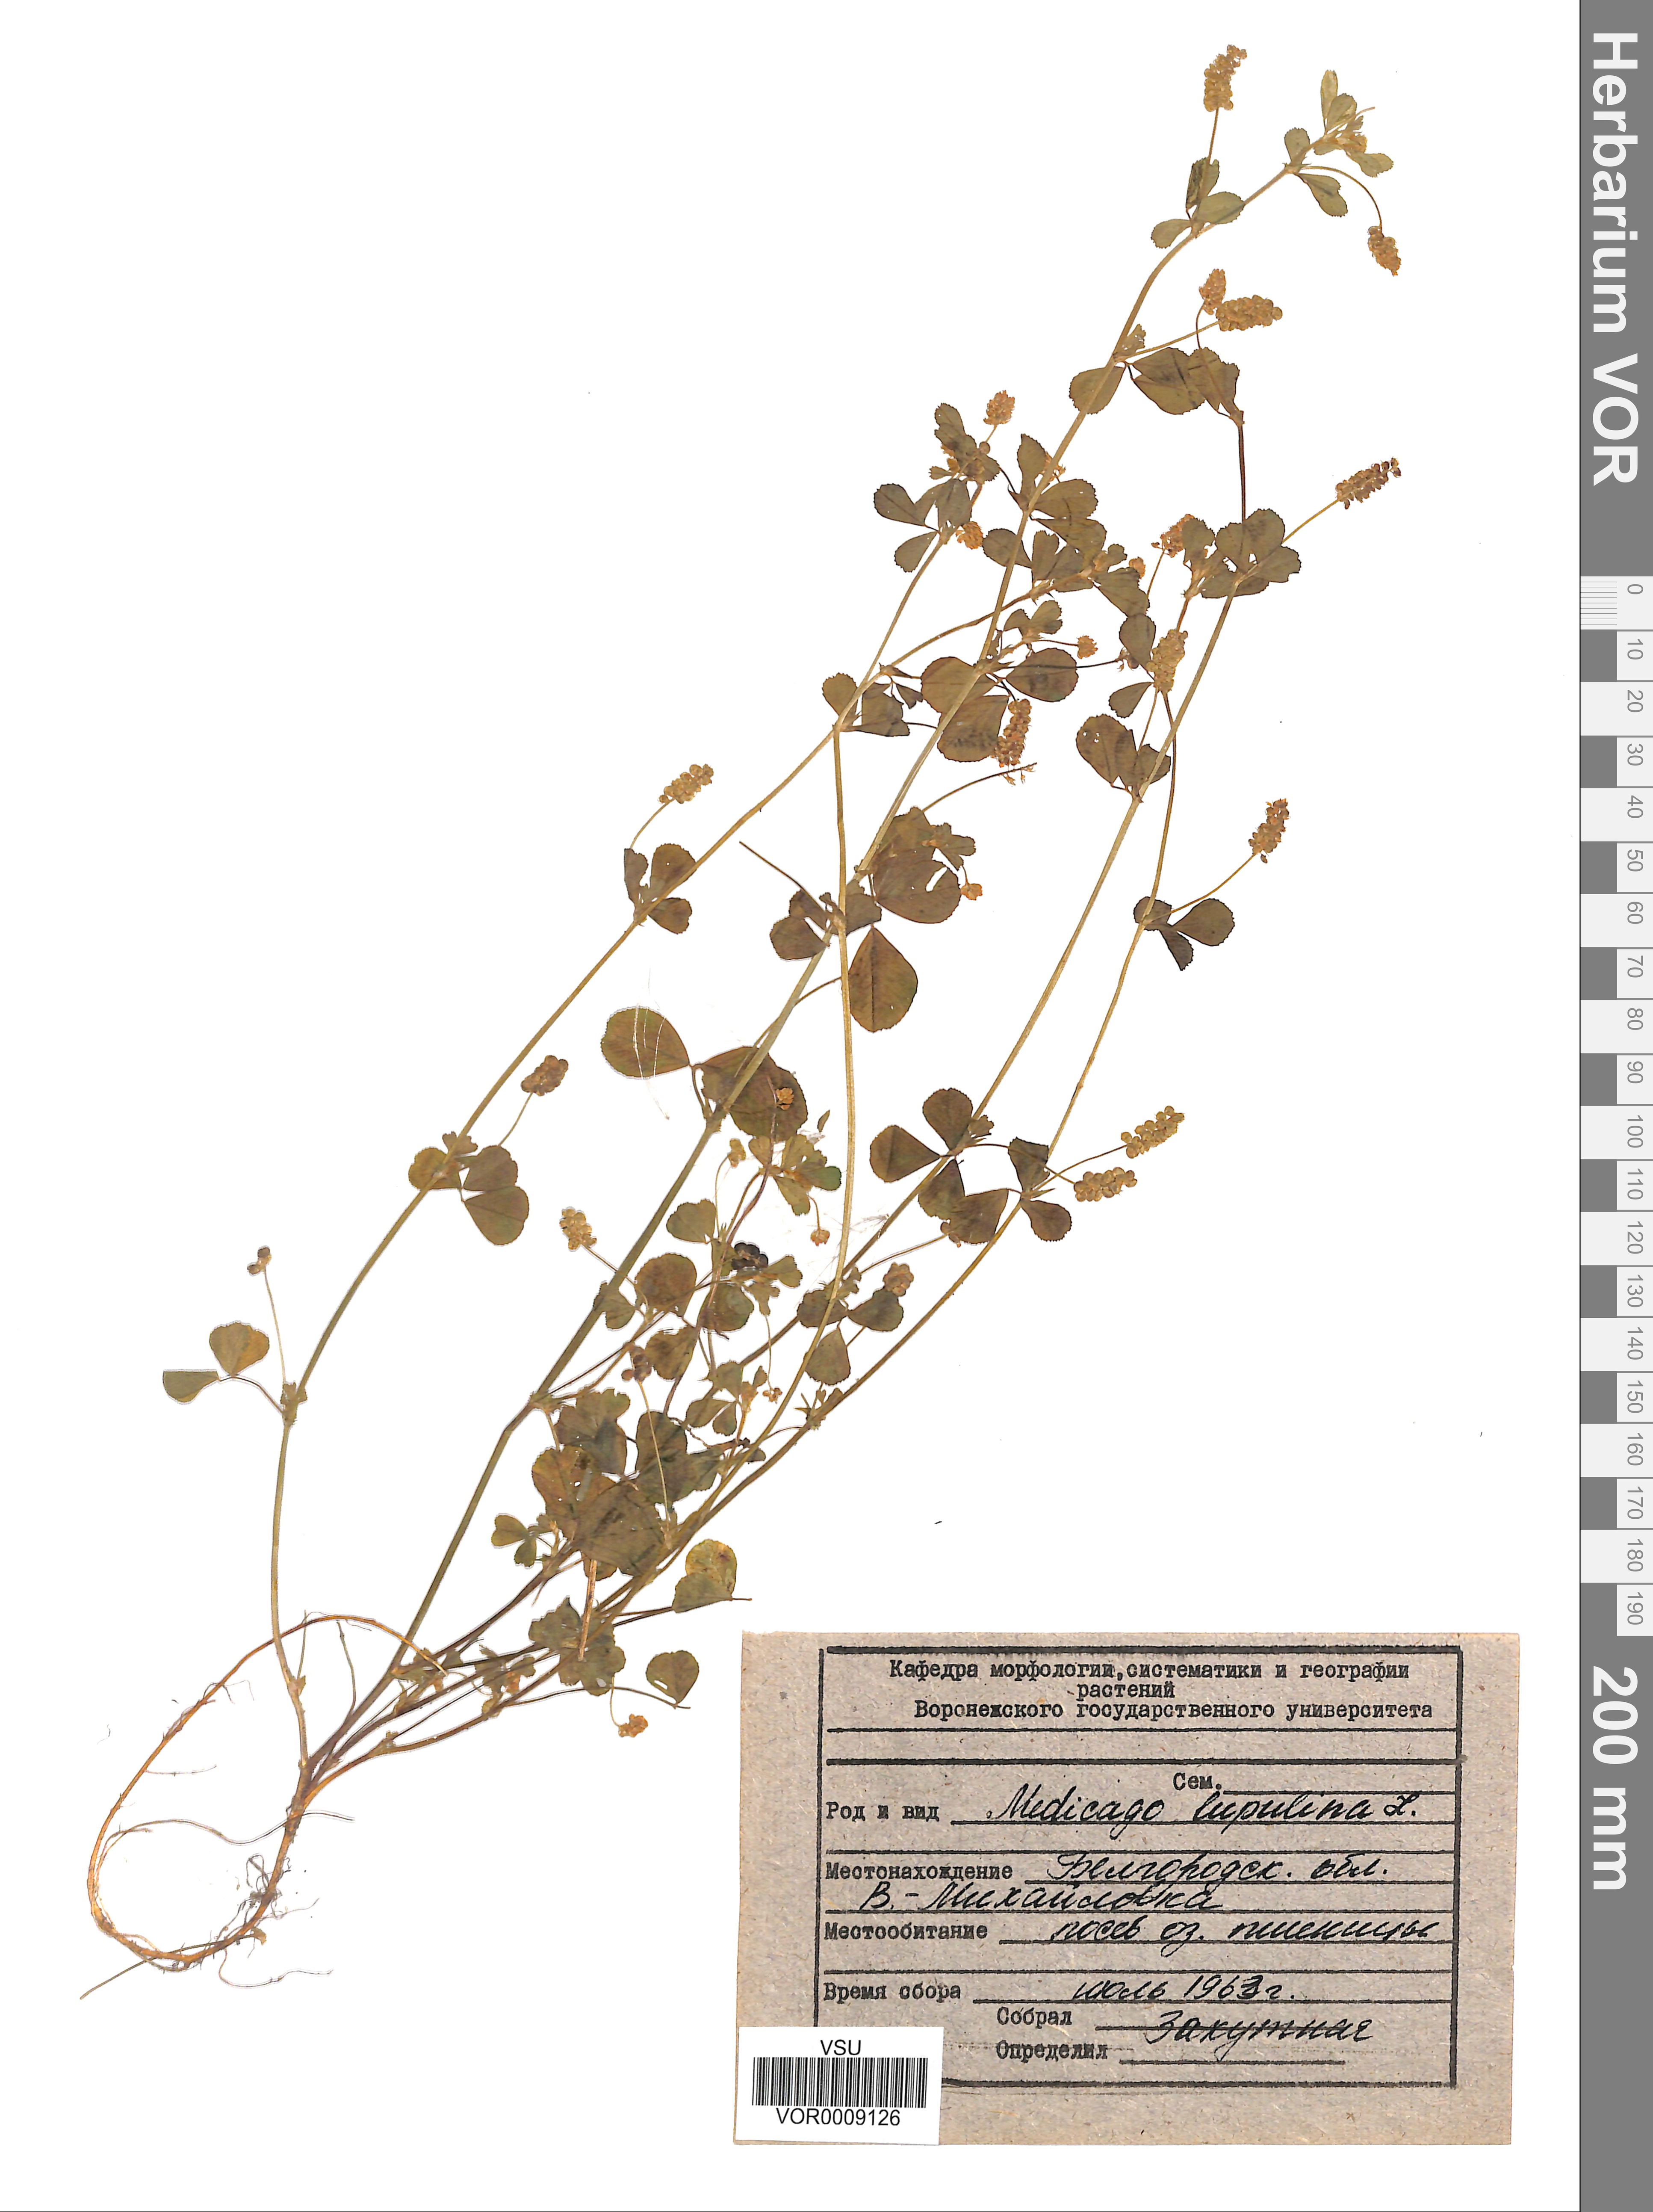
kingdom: Plantae
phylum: Tracheophyta
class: Magnoliopsida
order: Fabales
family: Fabaceae
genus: Medicago
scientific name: Medicago lupulina
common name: Black medick
